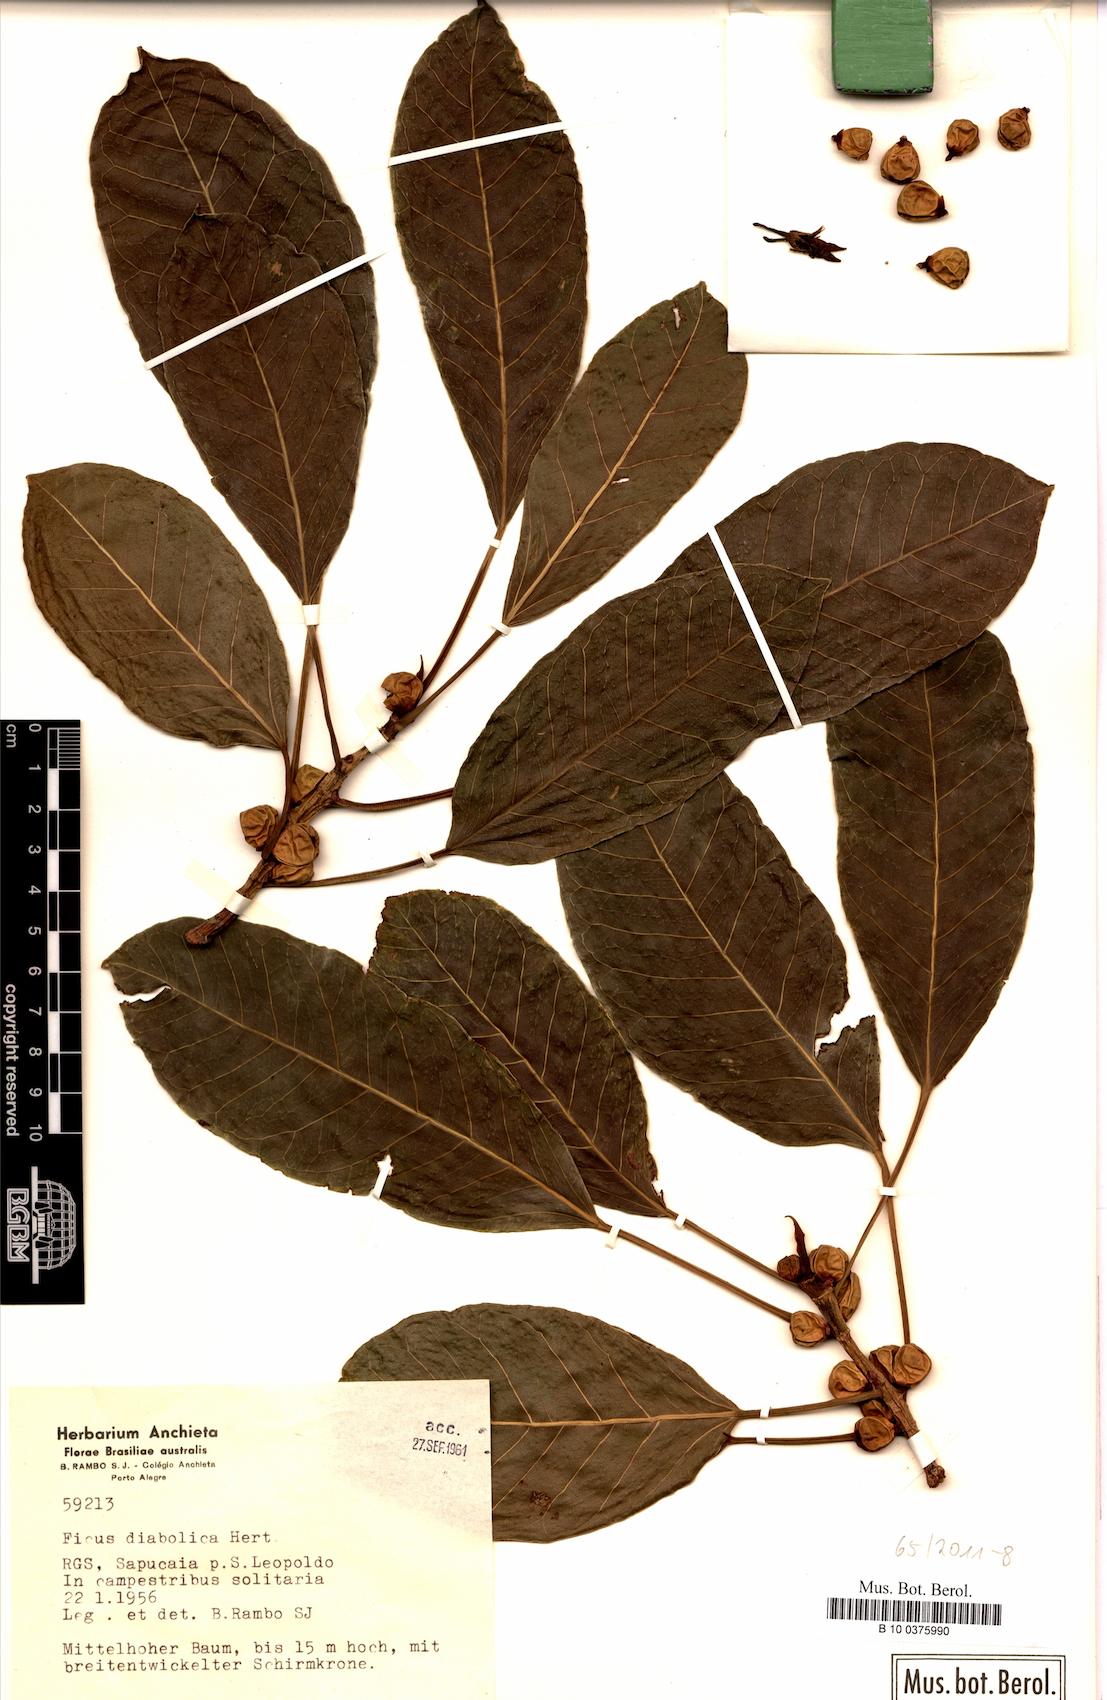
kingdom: Plantae
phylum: Tracheophyta
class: Magnoliopsida
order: Rosales
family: Moraceae
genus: Ficus
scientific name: Ficus luschnathiana
